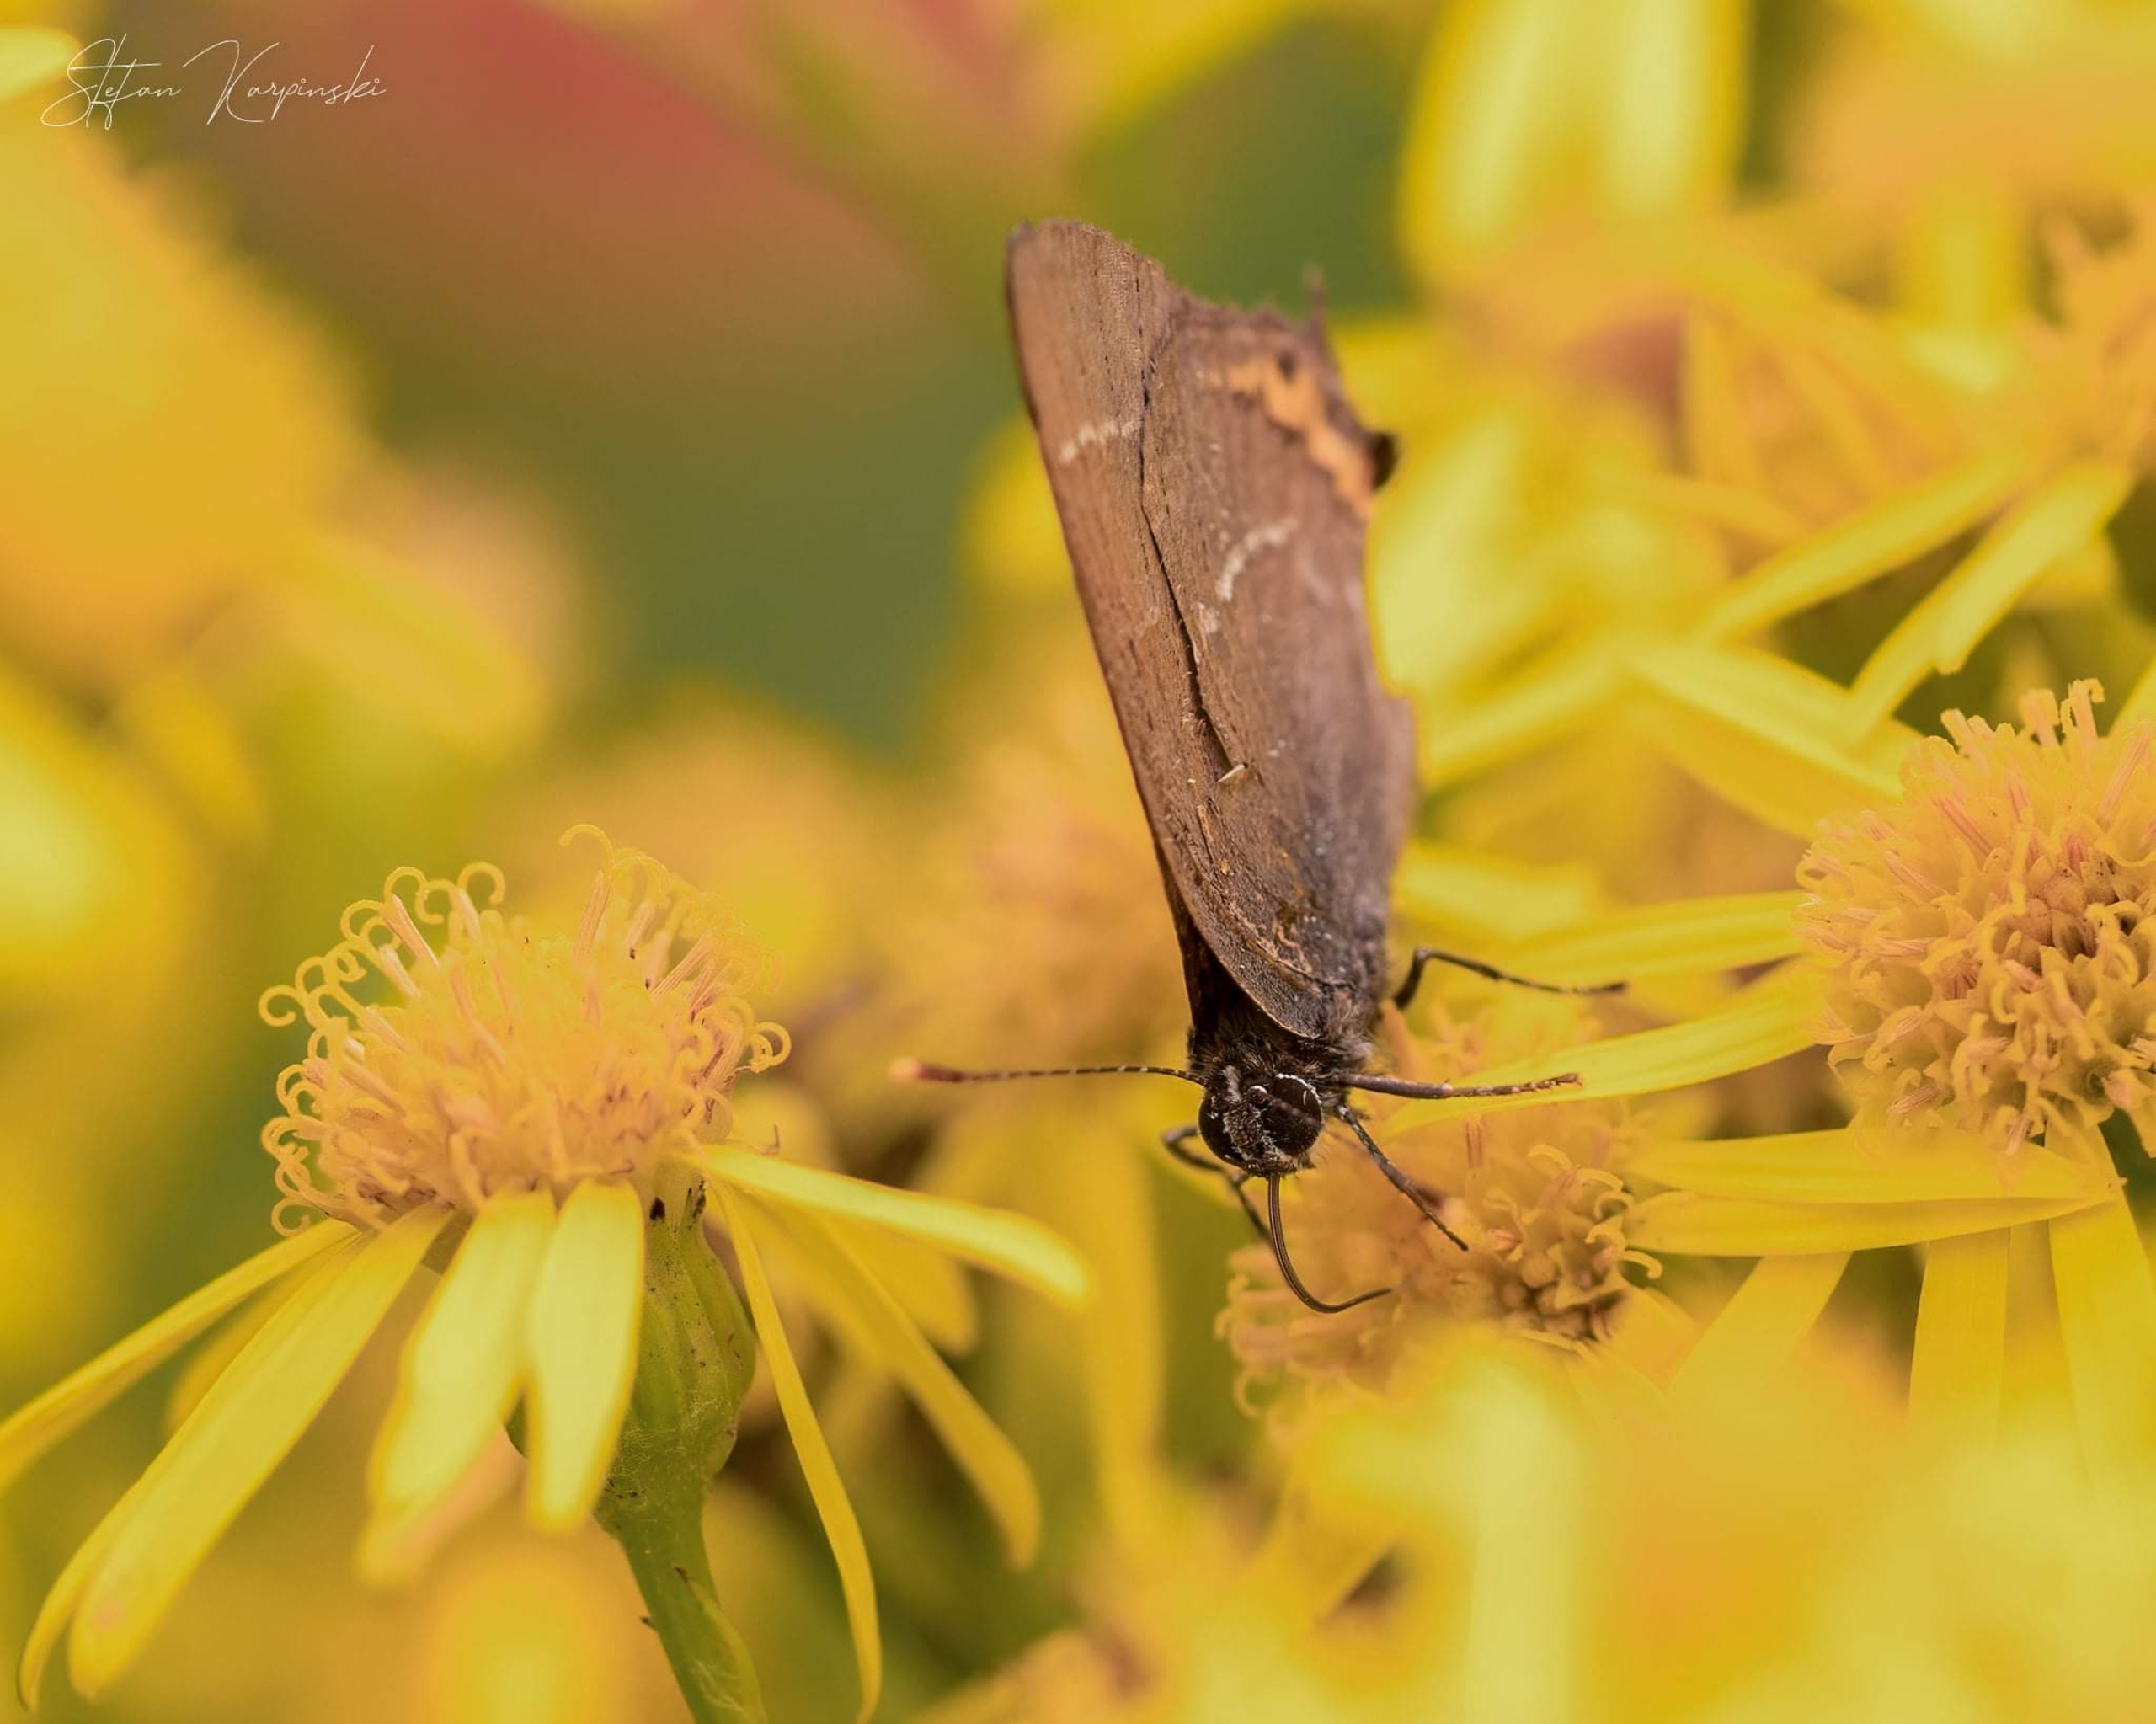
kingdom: Animalia
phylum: Arthropoda
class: Insecta
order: Lepidoptera
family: Lycaenidae
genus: Satyrium
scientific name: Satyrium w-album
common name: Det hvide W
